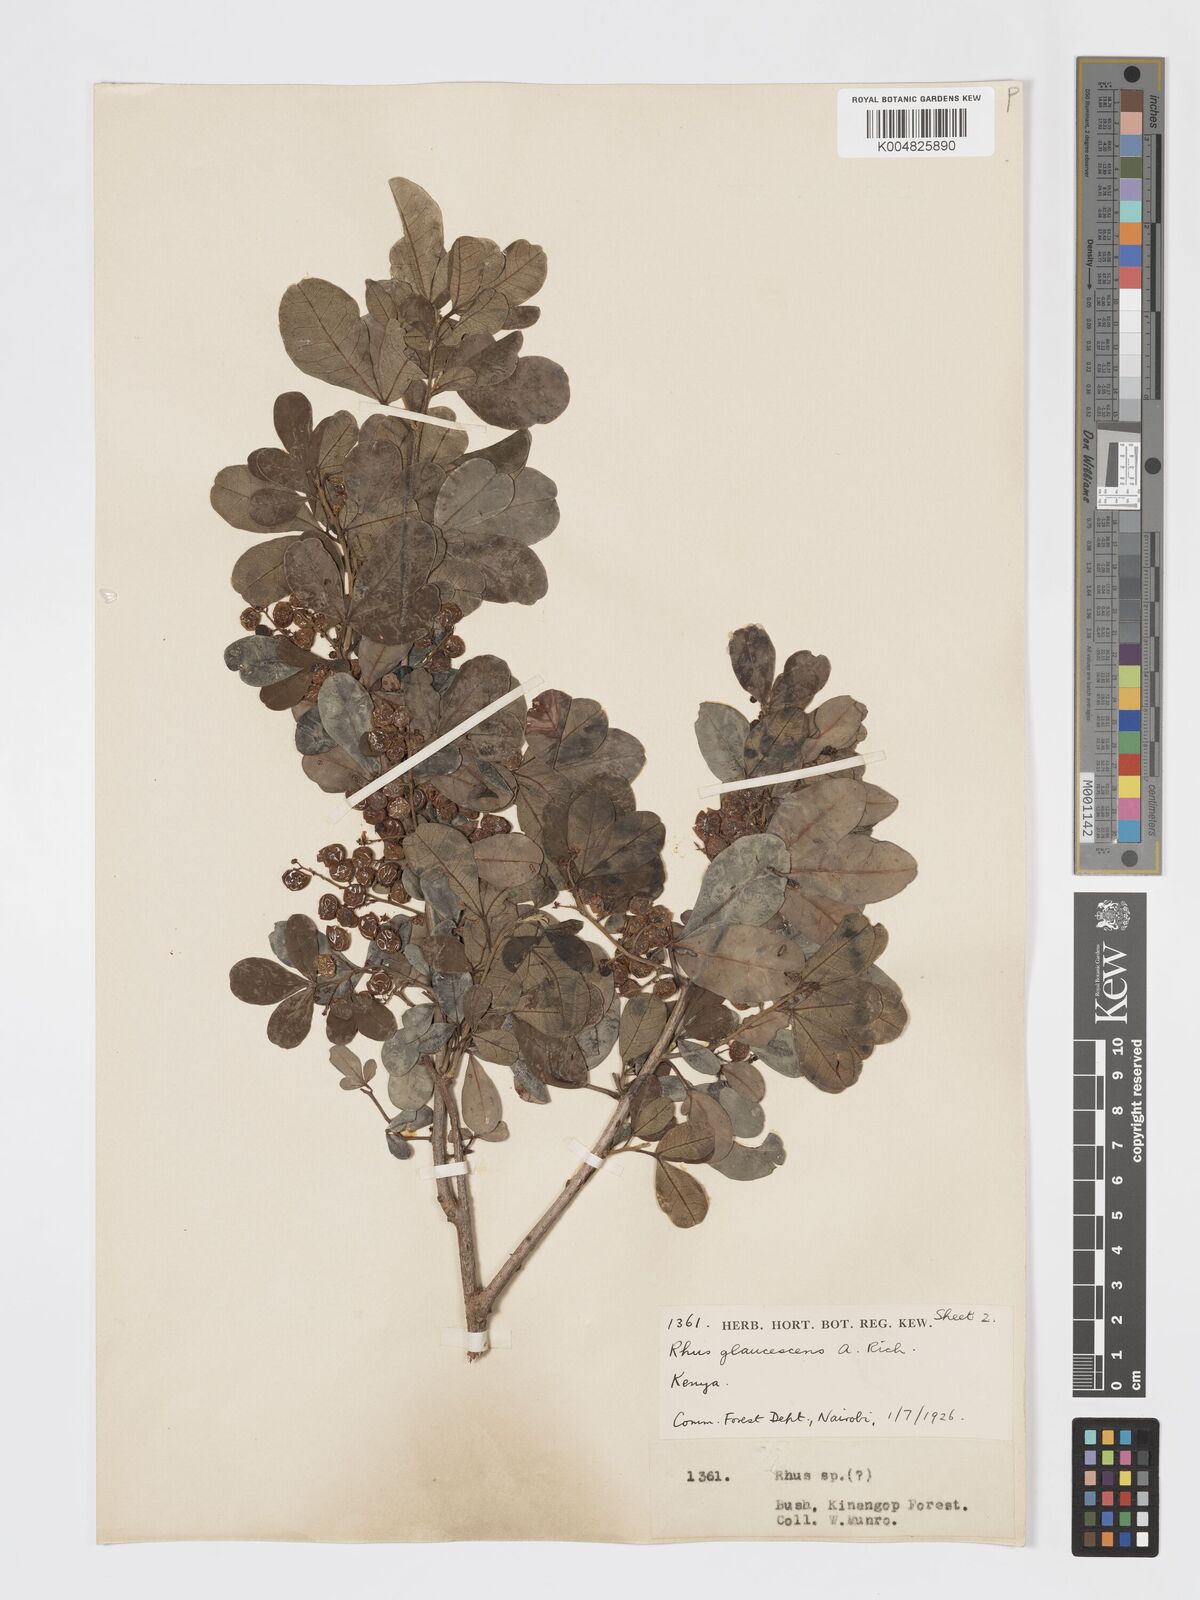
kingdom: Plantae
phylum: Tracheophyta
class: Magnoliopsida
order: Sapindales
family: Anacardiaceae
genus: Searsia
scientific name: Searsia natalensis
